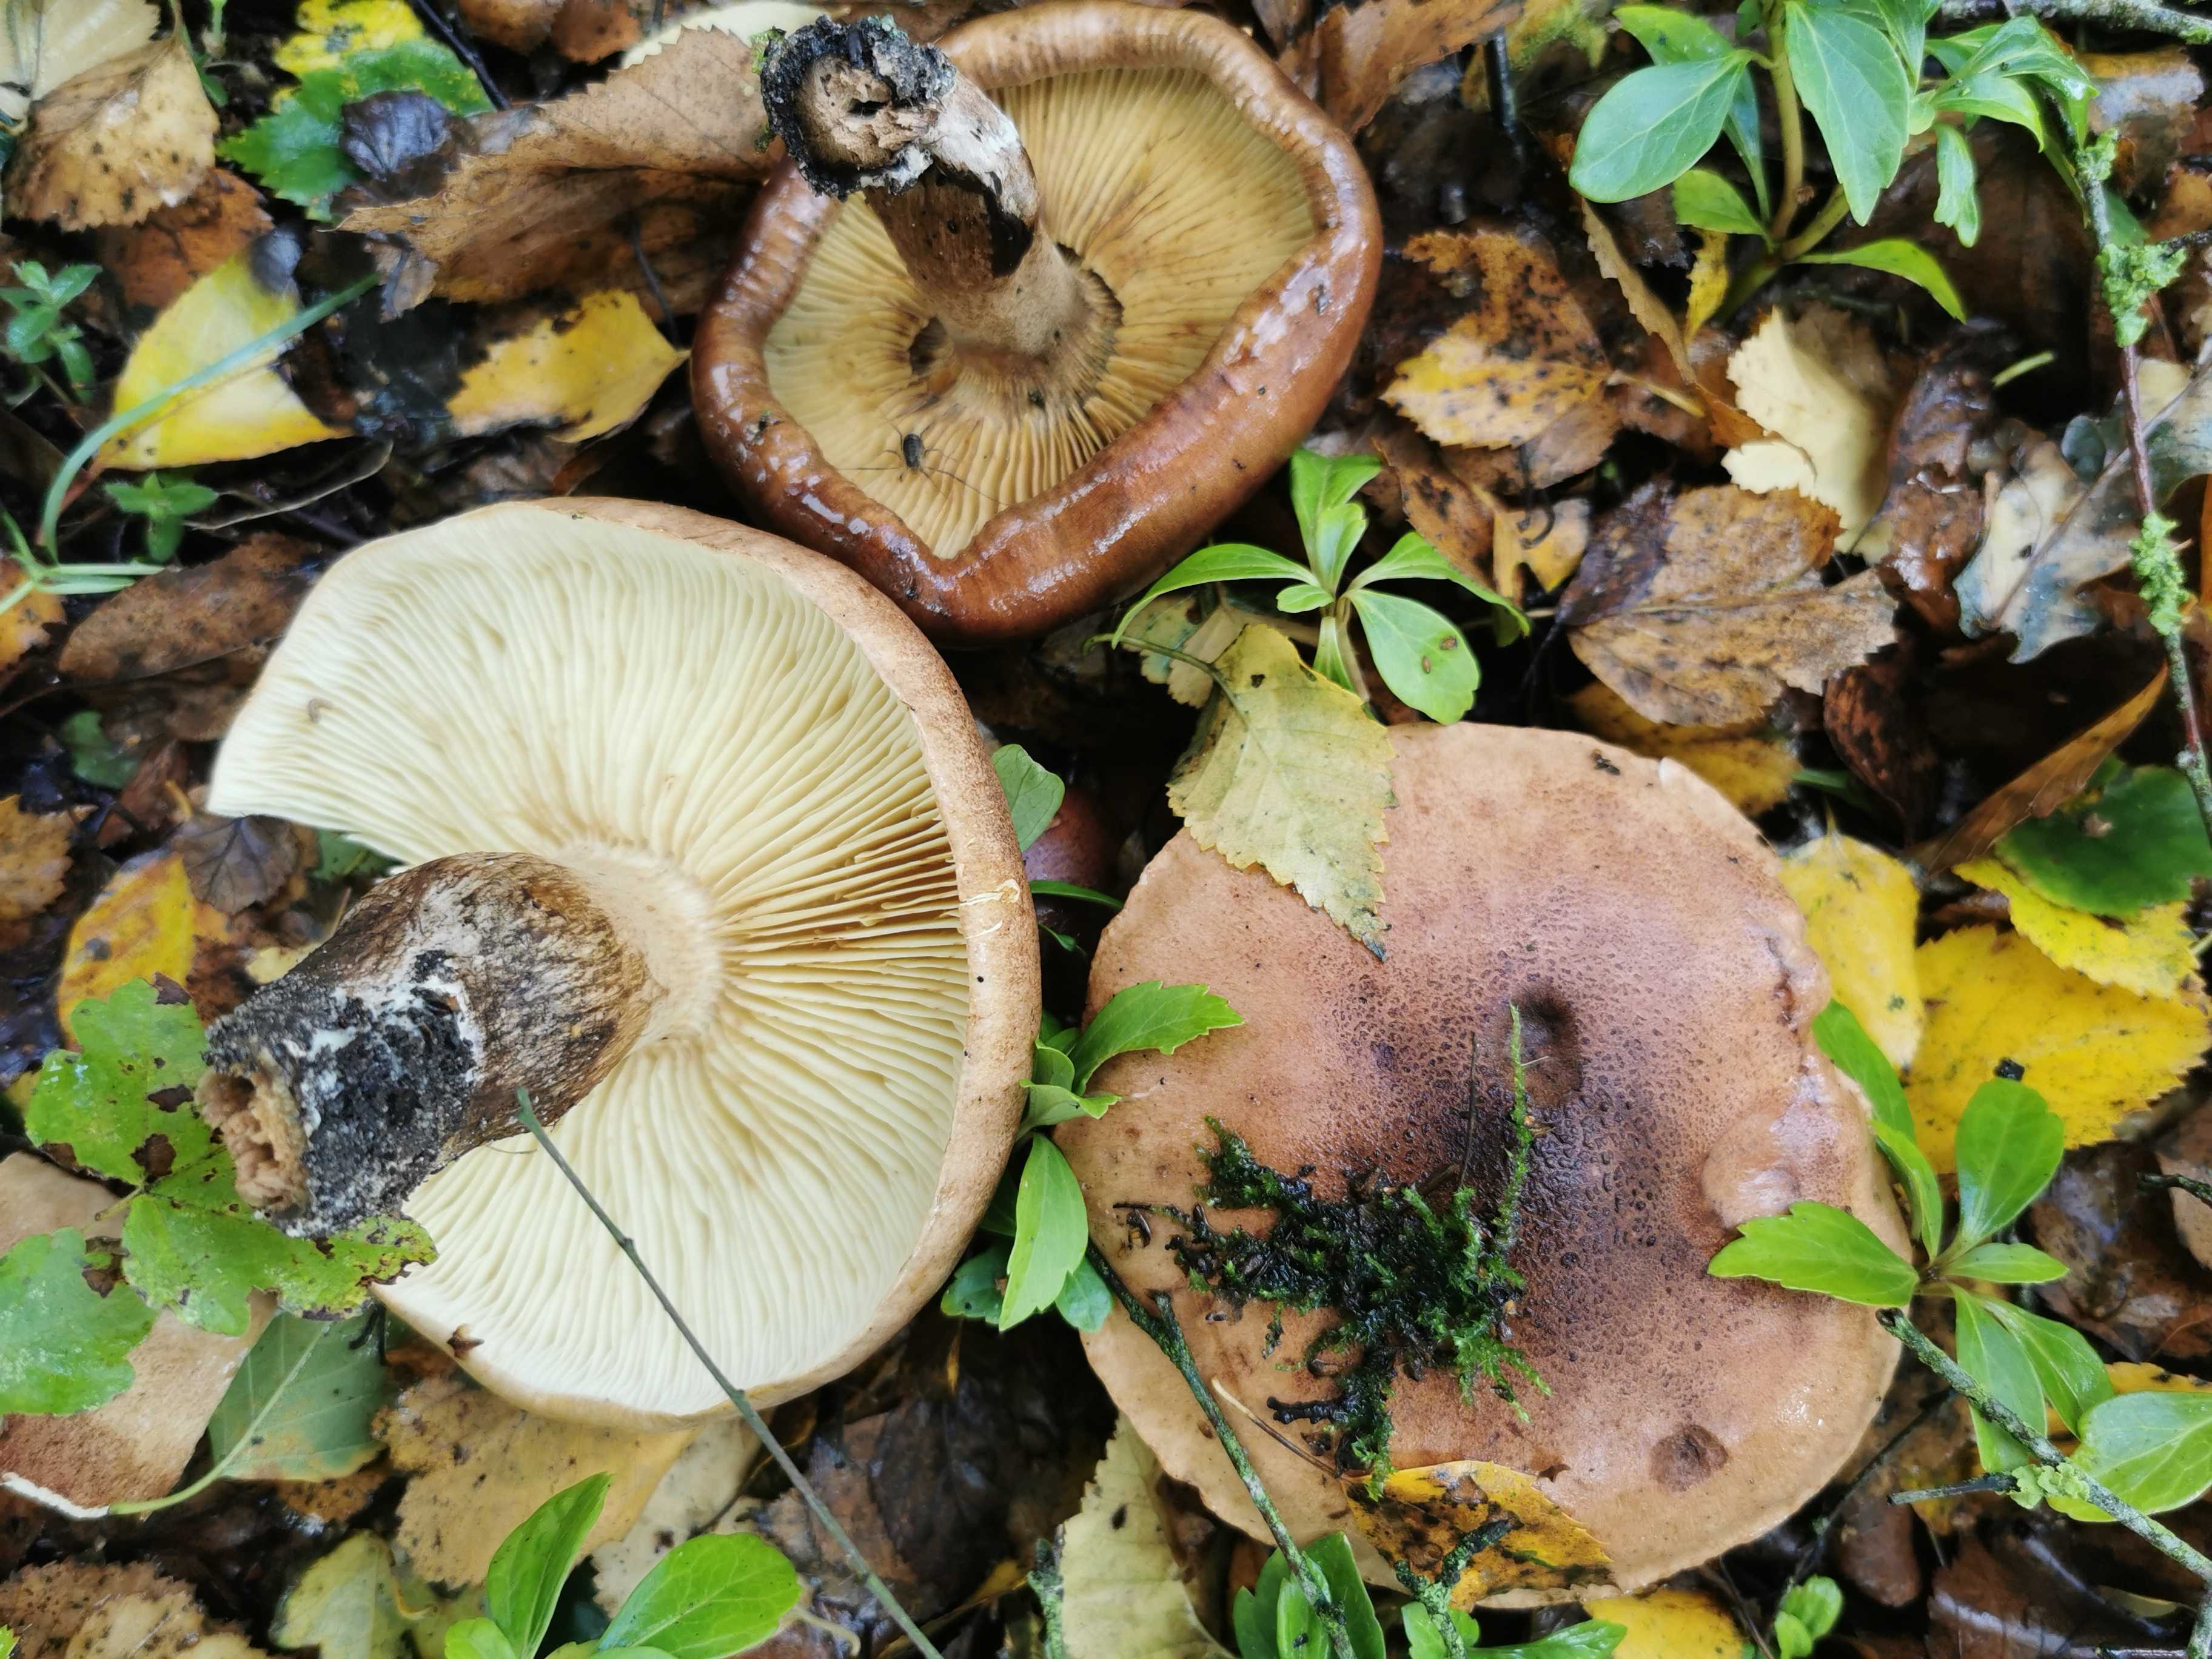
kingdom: Fungi
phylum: Basidiomycota
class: Agaricomycetes
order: Agaricales
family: Tricholomataceae
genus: Tricholoma
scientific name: Tricholoma fulvum
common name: birke-ridderhat
